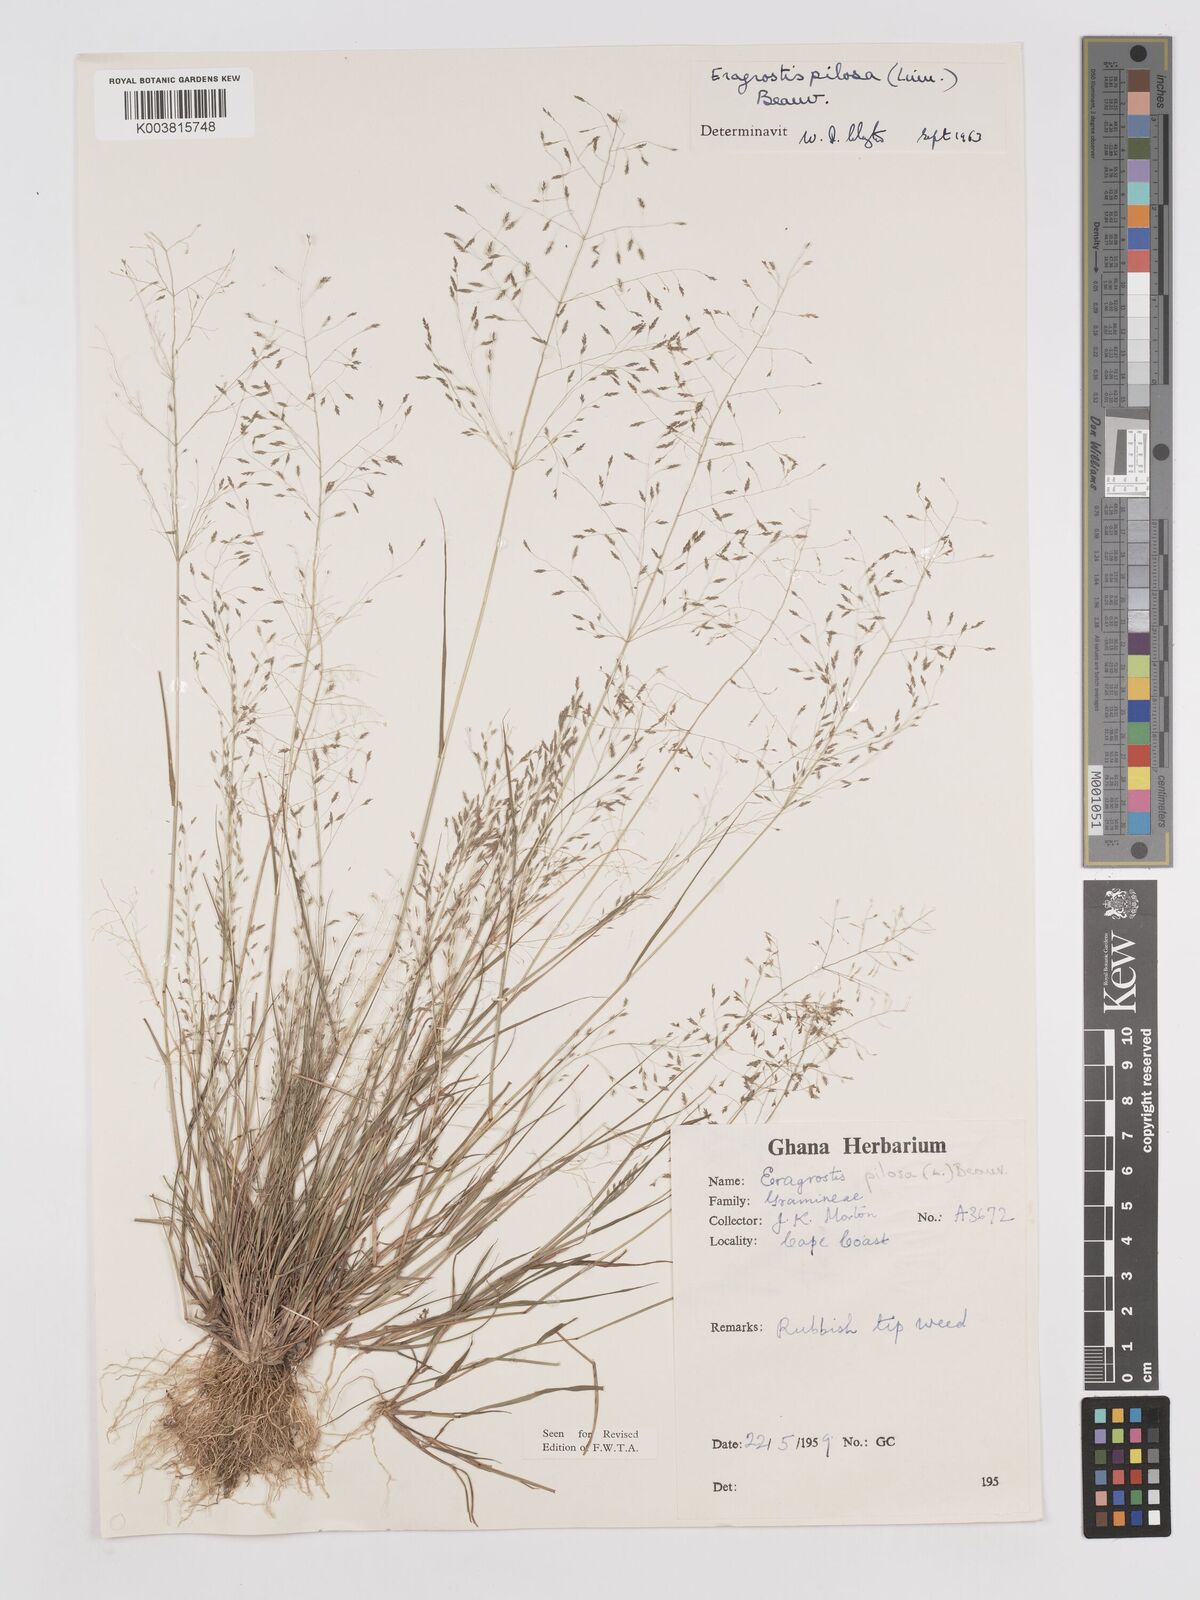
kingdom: Plantae
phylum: Tracheophyta
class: Liliopsida
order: Poales
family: Poaceae
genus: Eragrostis
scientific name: Eragrostis pilosa
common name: Indian lovegrass
